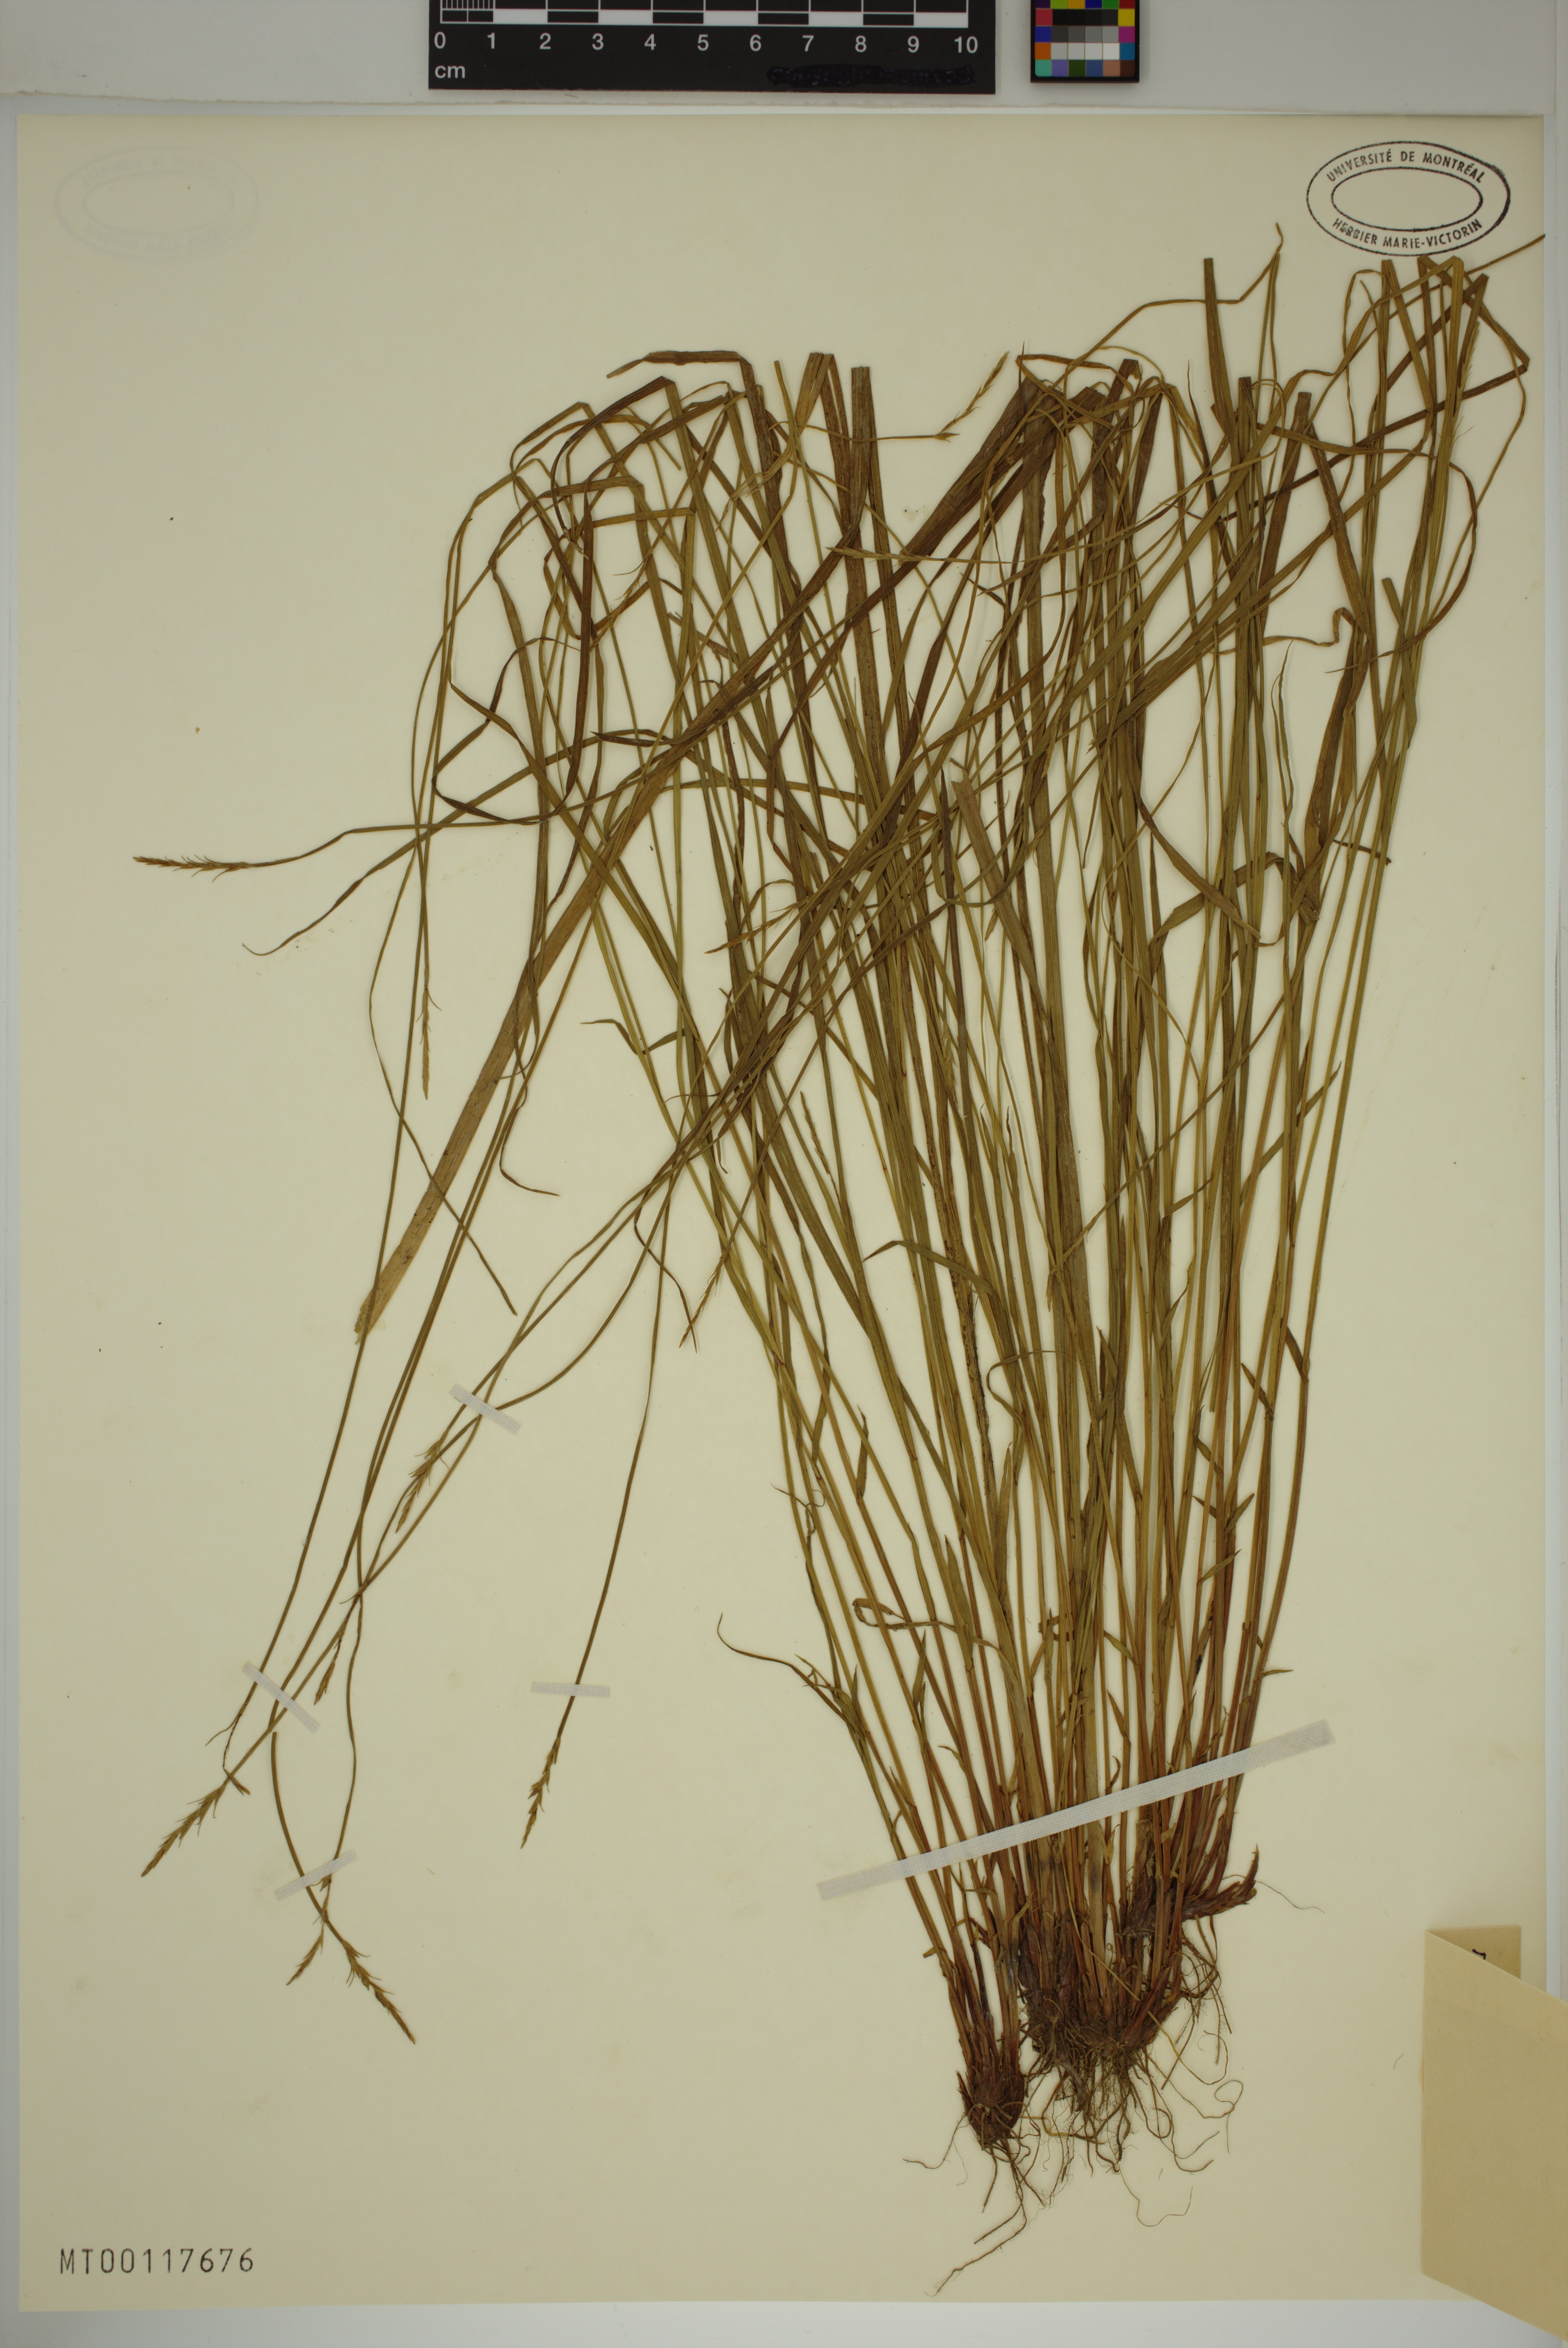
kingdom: Plantae
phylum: Tracheophyta
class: Liliopsida
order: Poales
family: Cyperaceae
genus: Carex
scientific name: Carex petelotii
